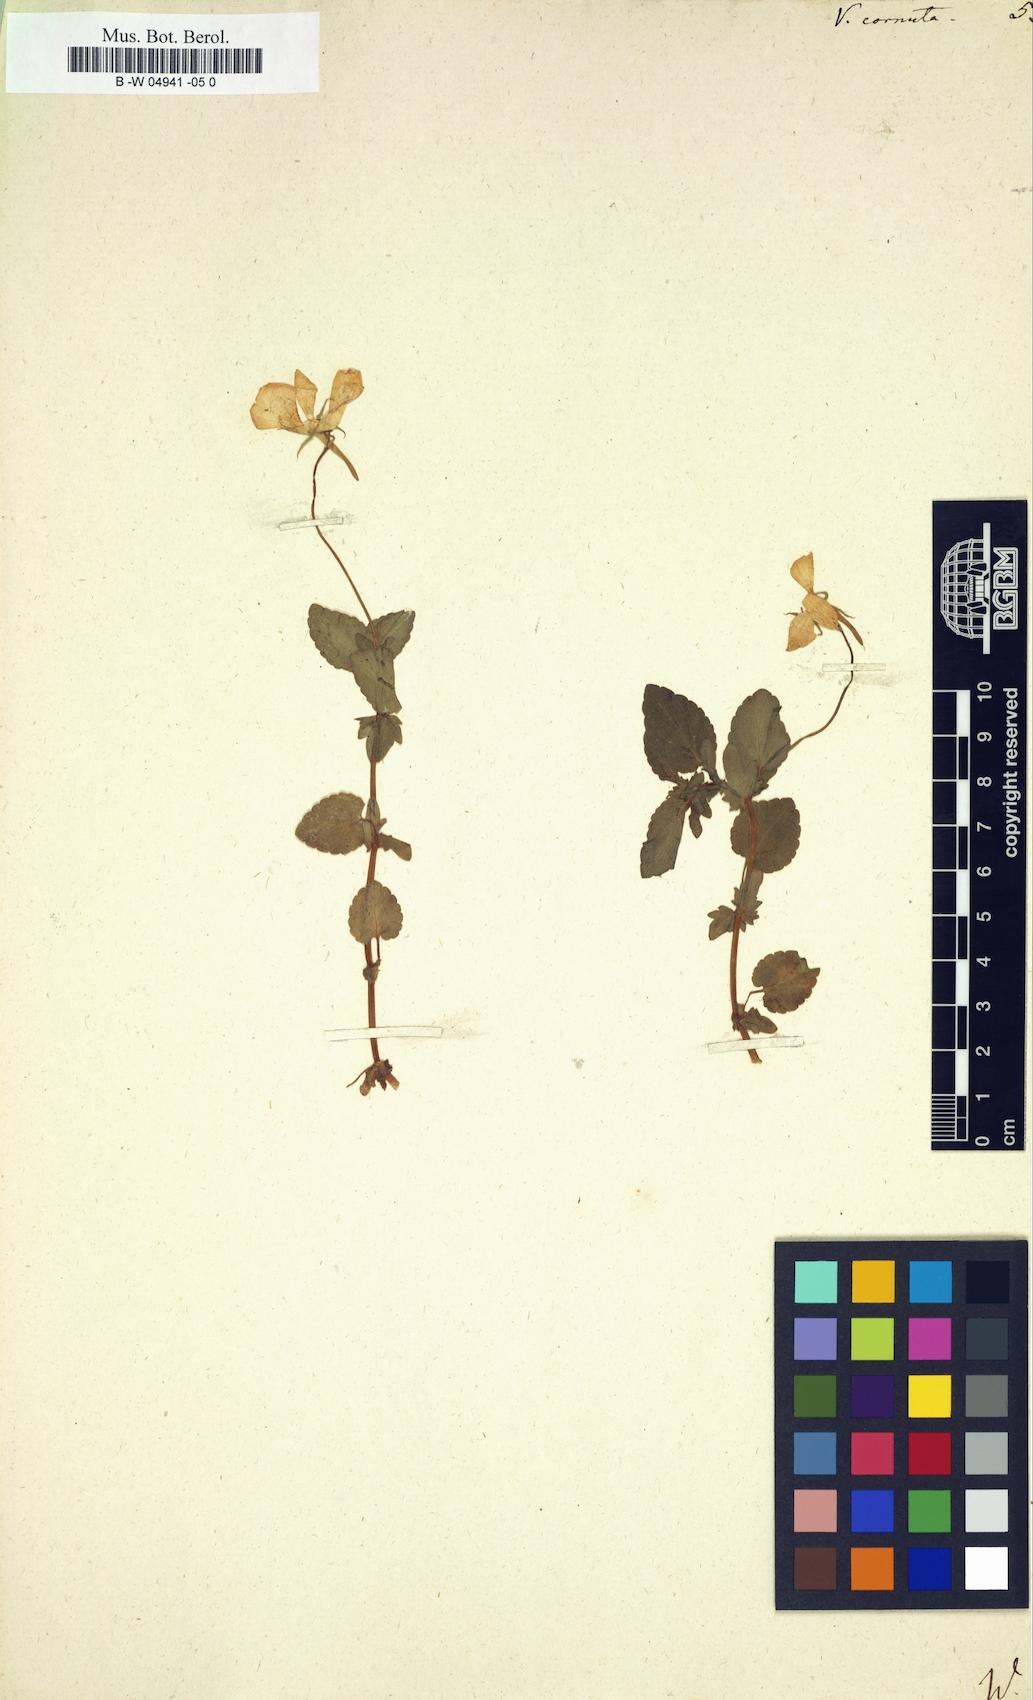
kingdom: Plantae
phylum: Tracheophyta
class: Magnoliopsida
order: Malpighiales
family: Violaceae
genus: Viola
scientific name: Viola cornuta
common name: Horned pansy
